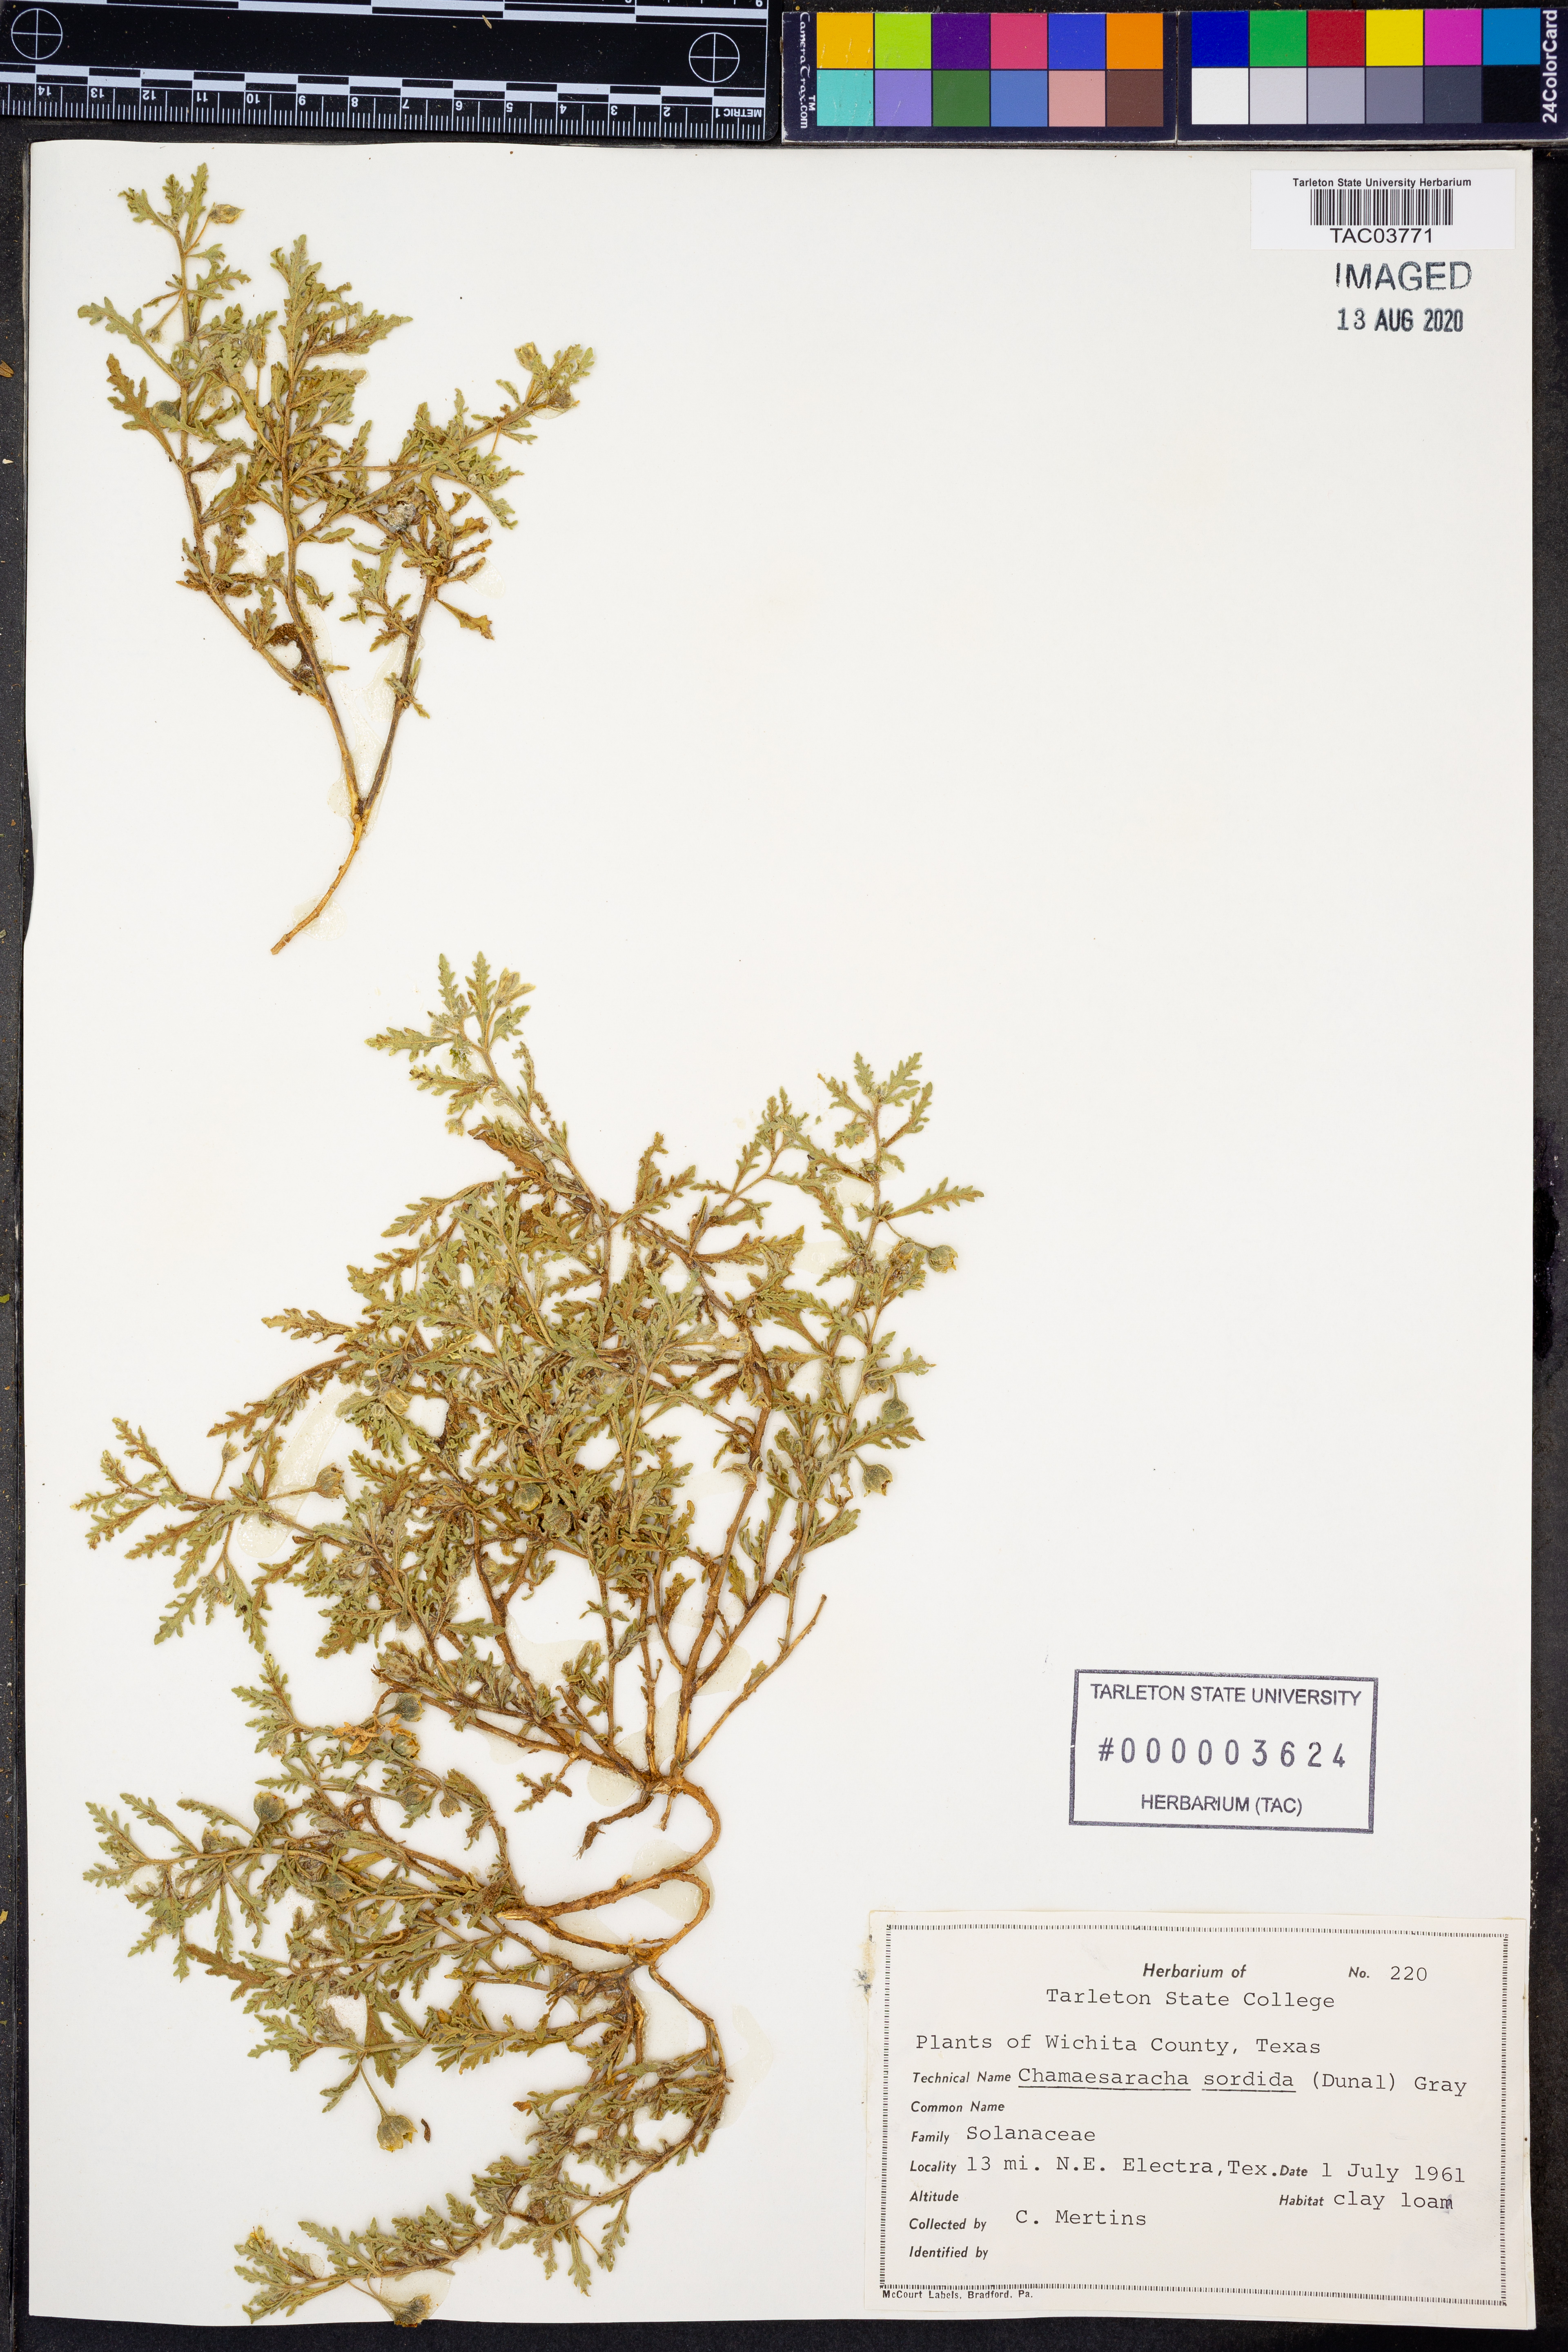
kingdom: Plantae
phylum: Tracheophyta
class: Magnoliopsida
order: Solanales
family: Solanaceae
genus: Chamaesaracha
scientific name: Chamaesaracha sordida
